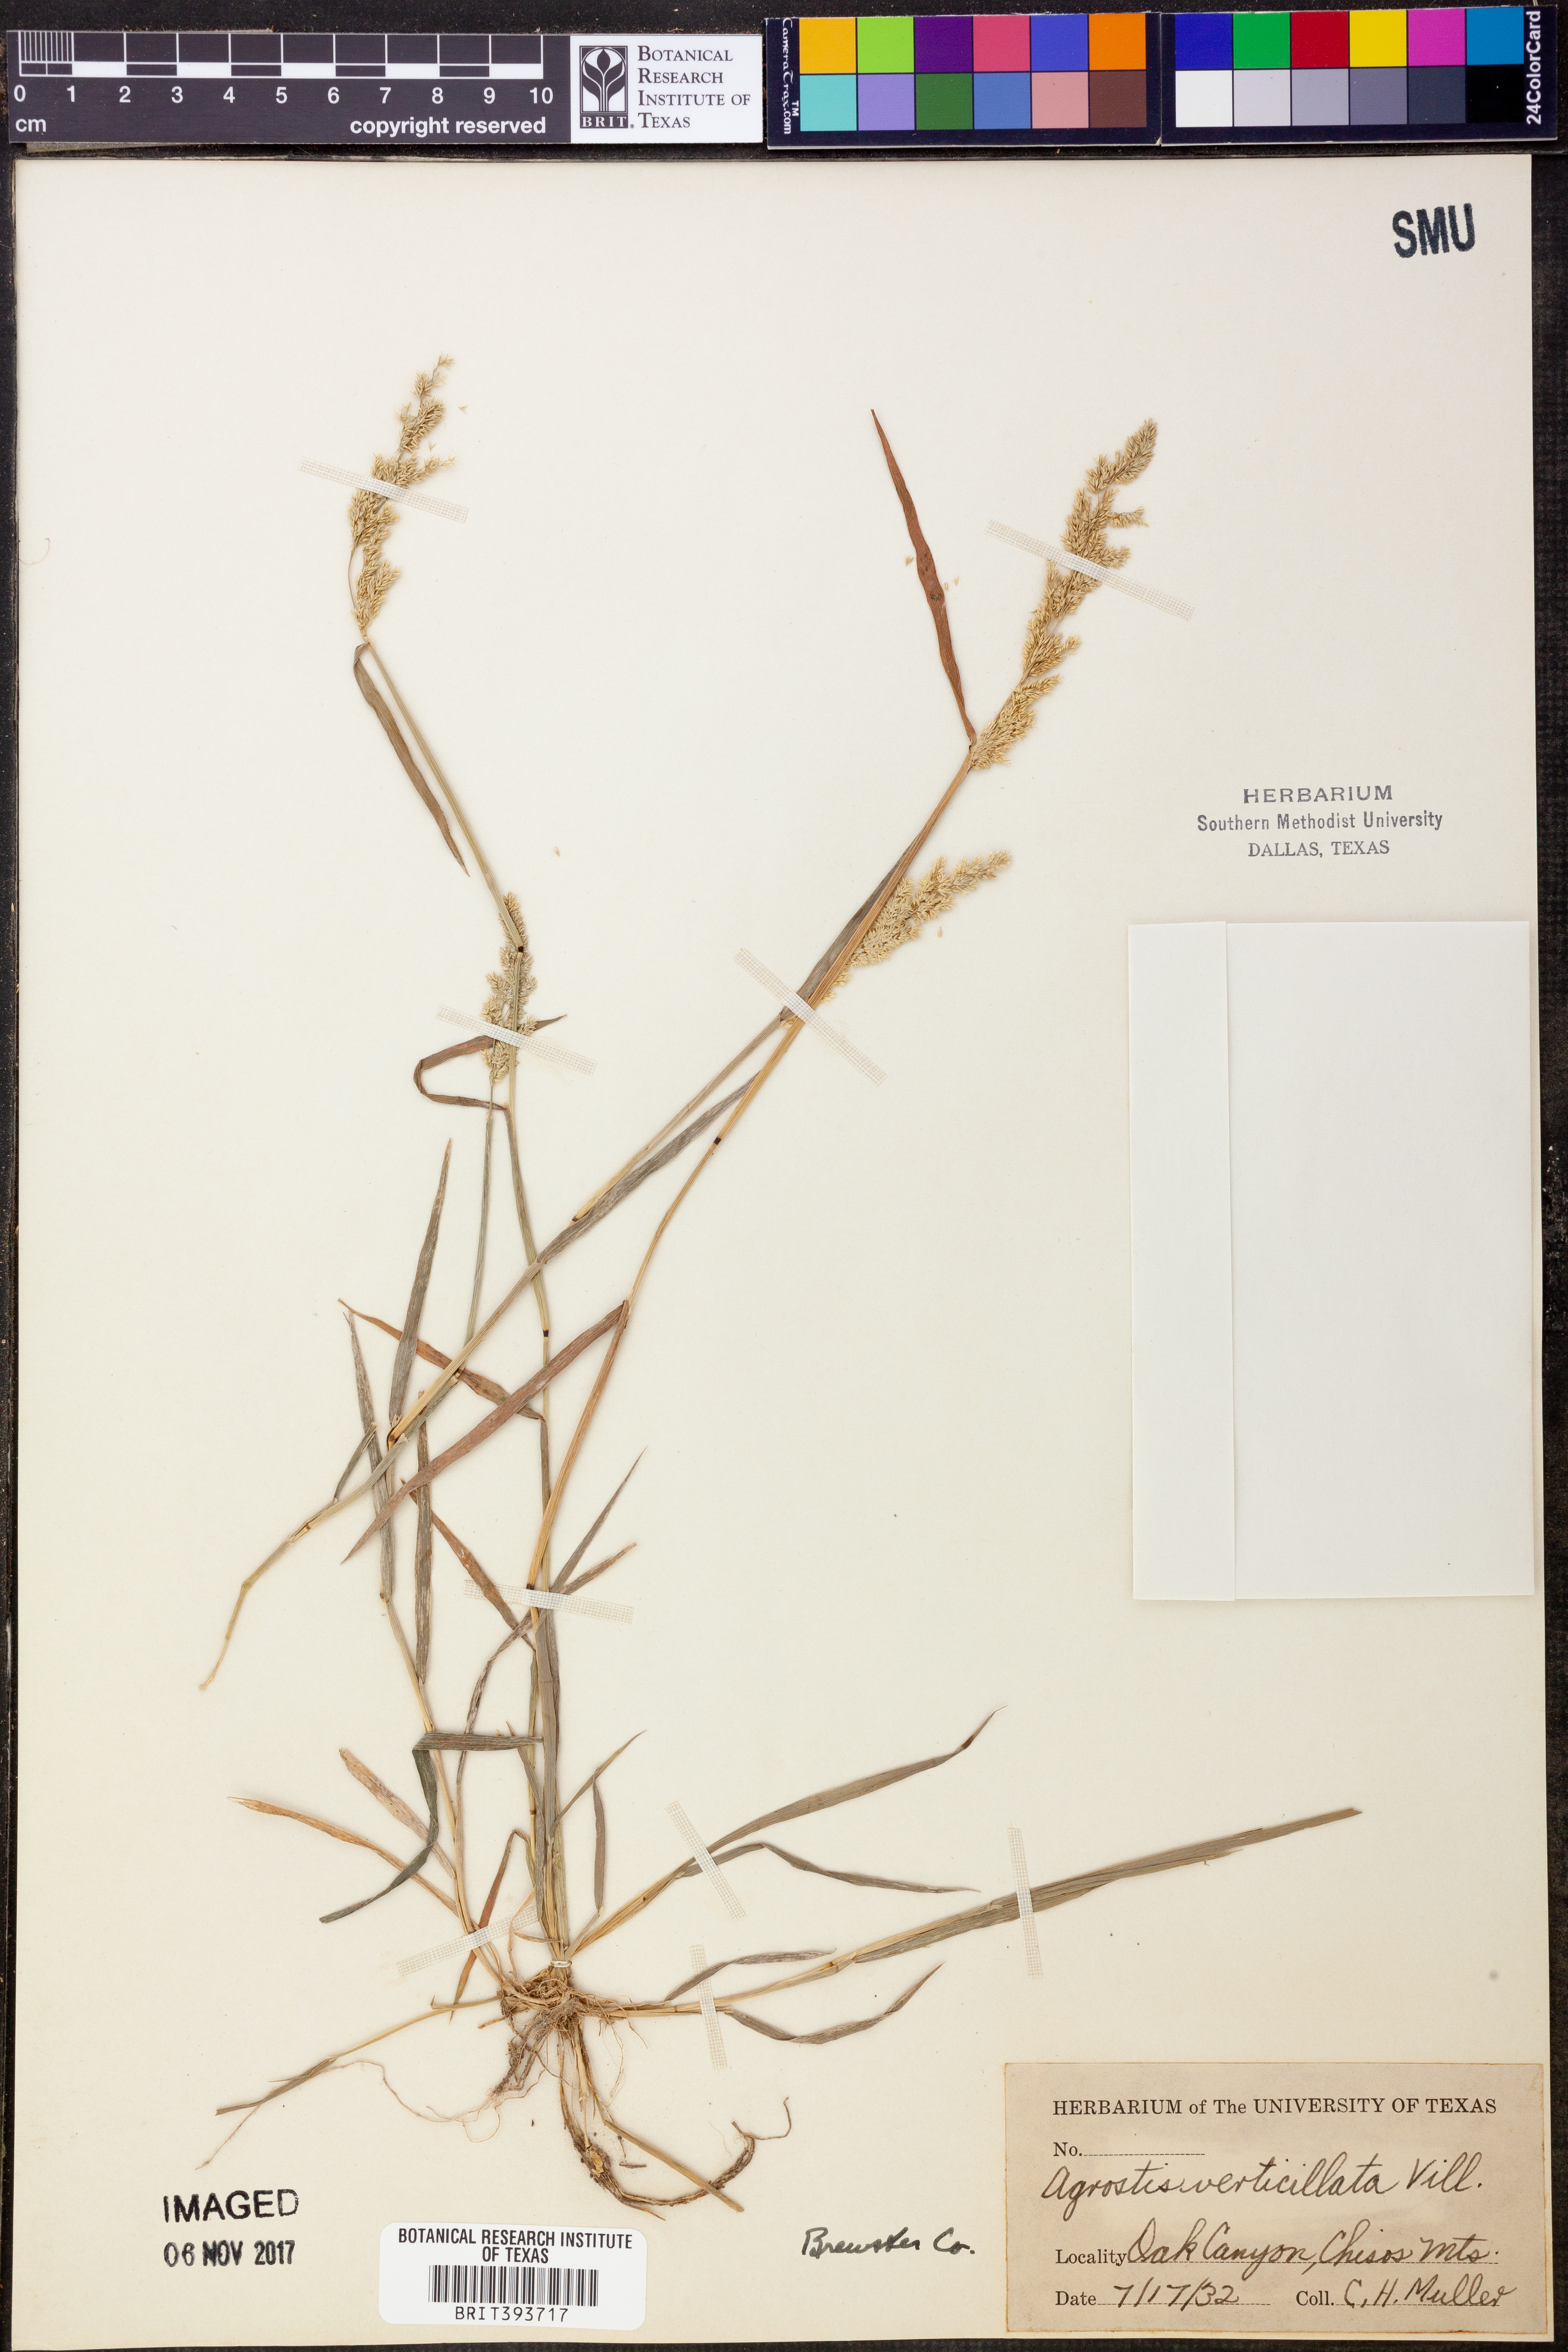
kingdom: Plantae
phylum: Tracheophyta
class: Liliopsida
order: Poales
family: Poaceae
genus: Polypogon
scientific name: Polypogon viridis
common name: Water bent
